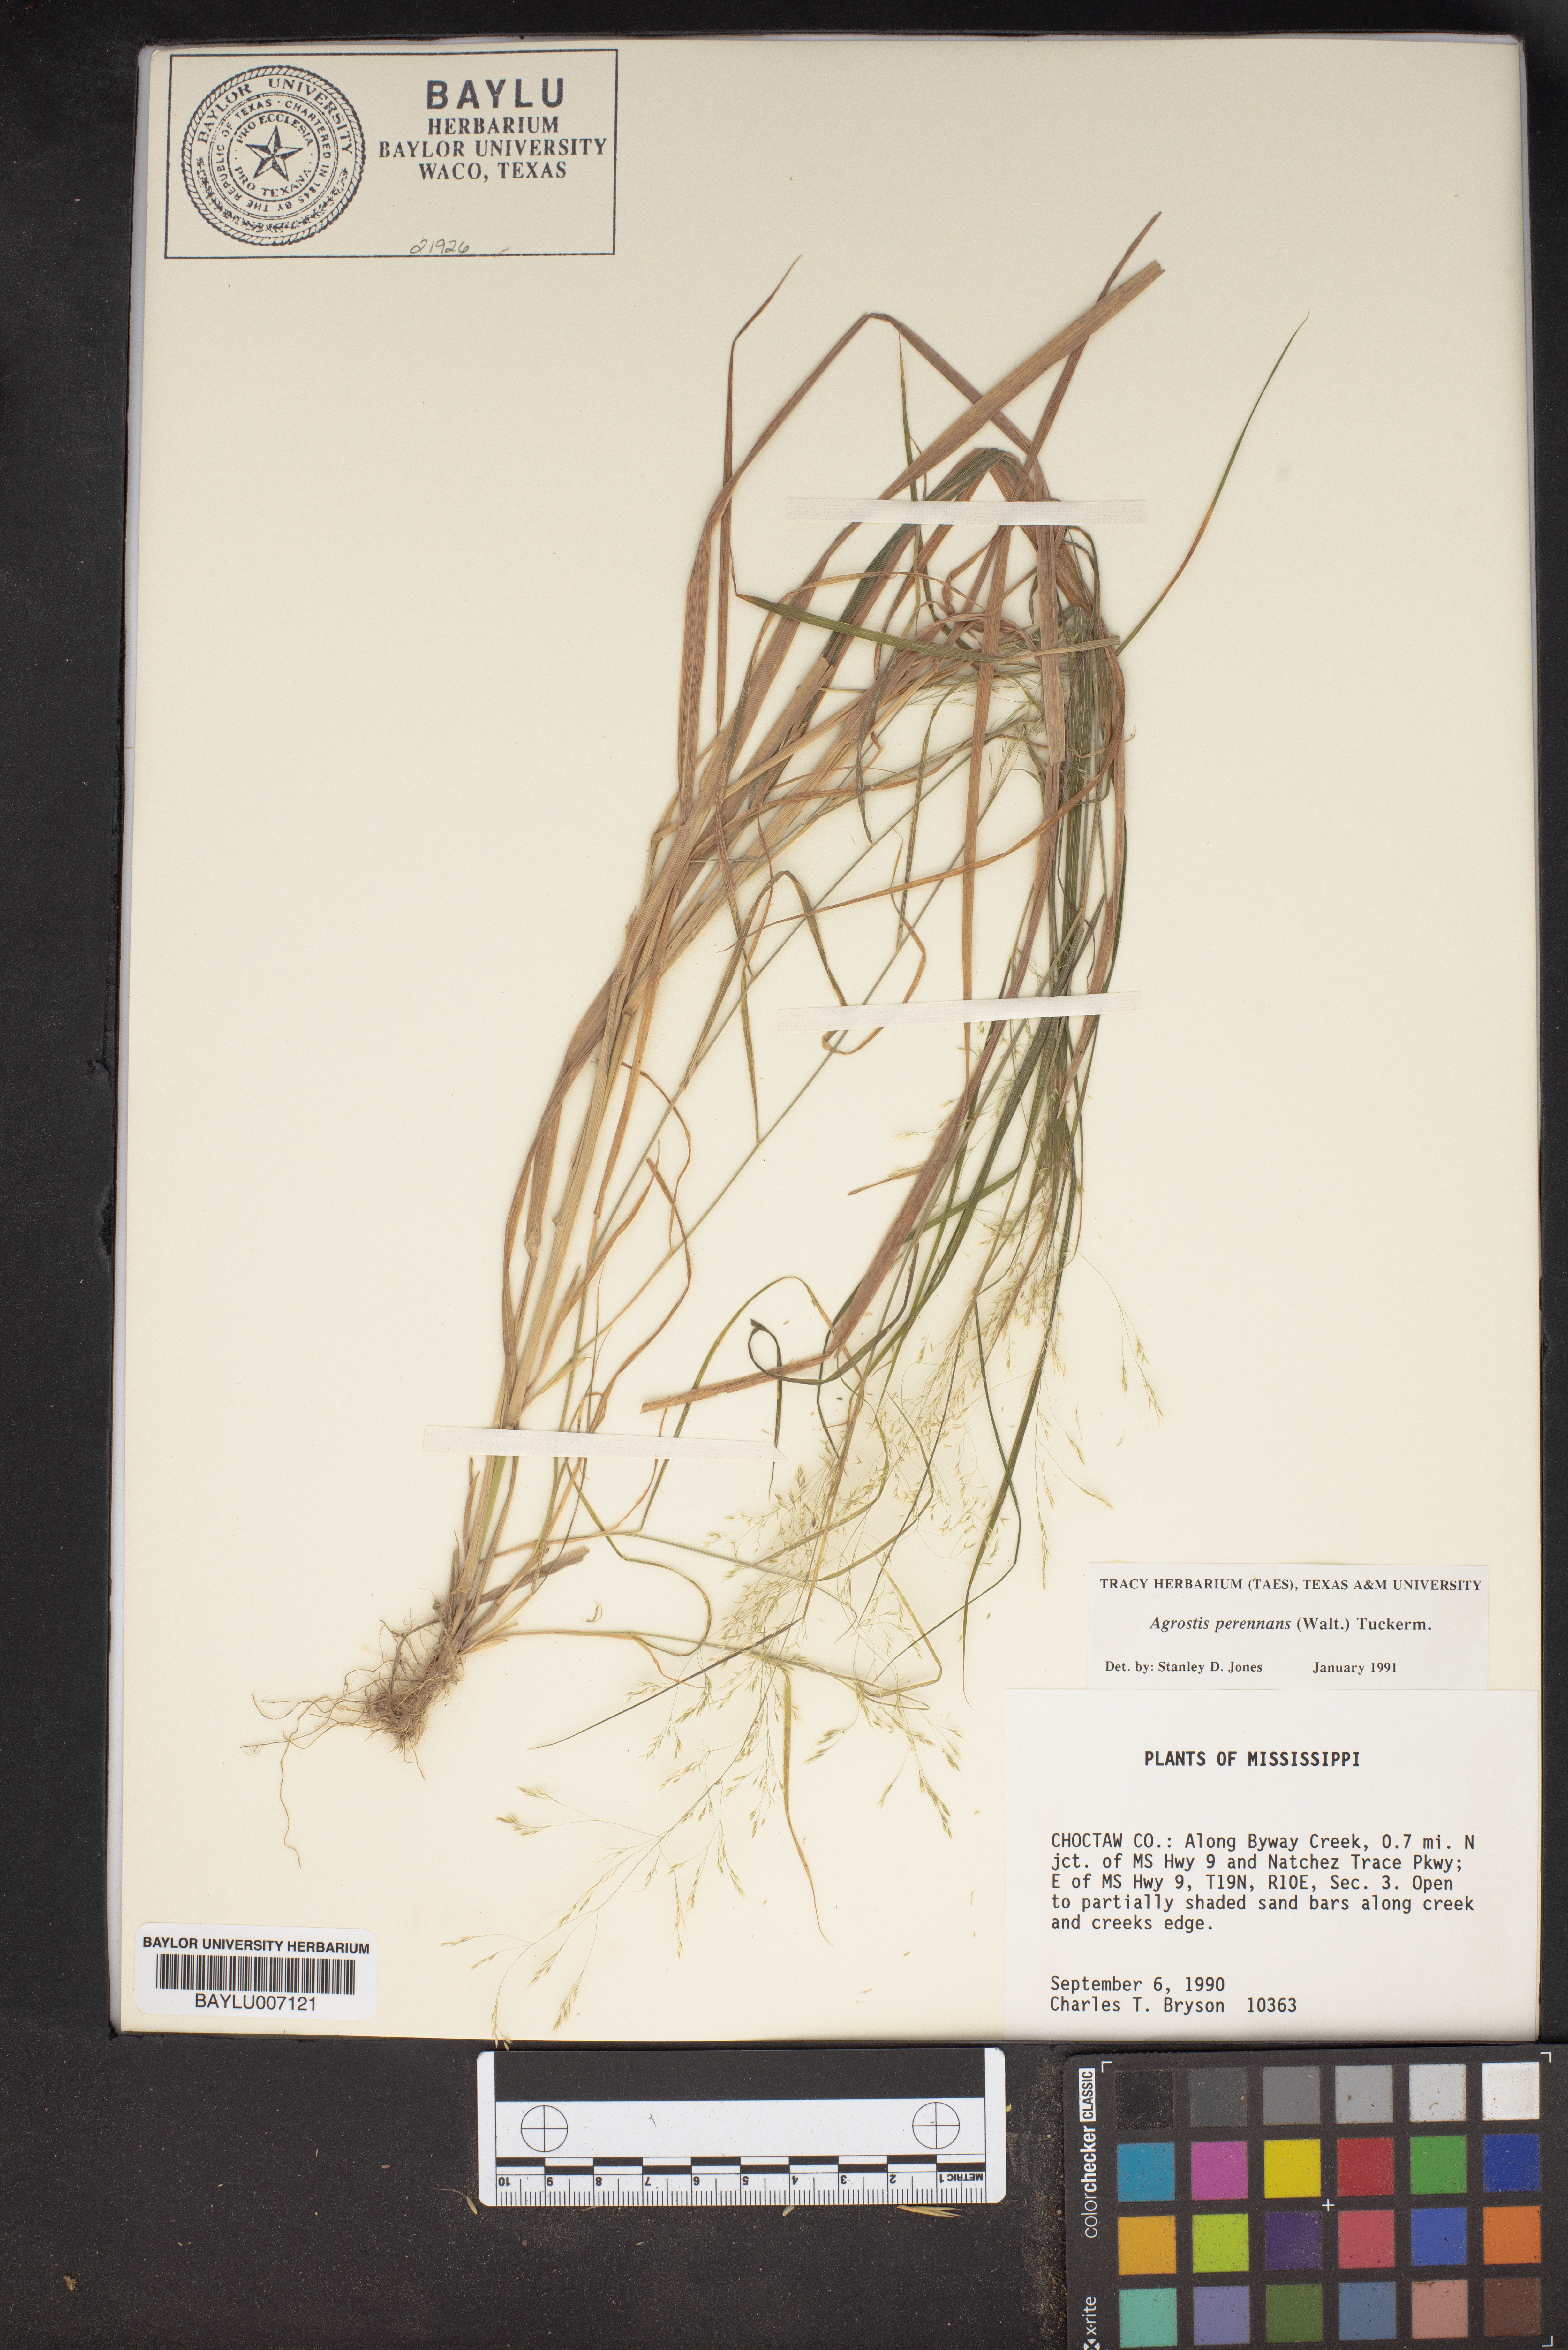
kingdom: Plantae
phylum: Tracheophyta
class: Liliopsida
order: Poales
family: Poaceae
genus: Agrostis
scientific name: Agrostis perennans
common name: Autumn bent
